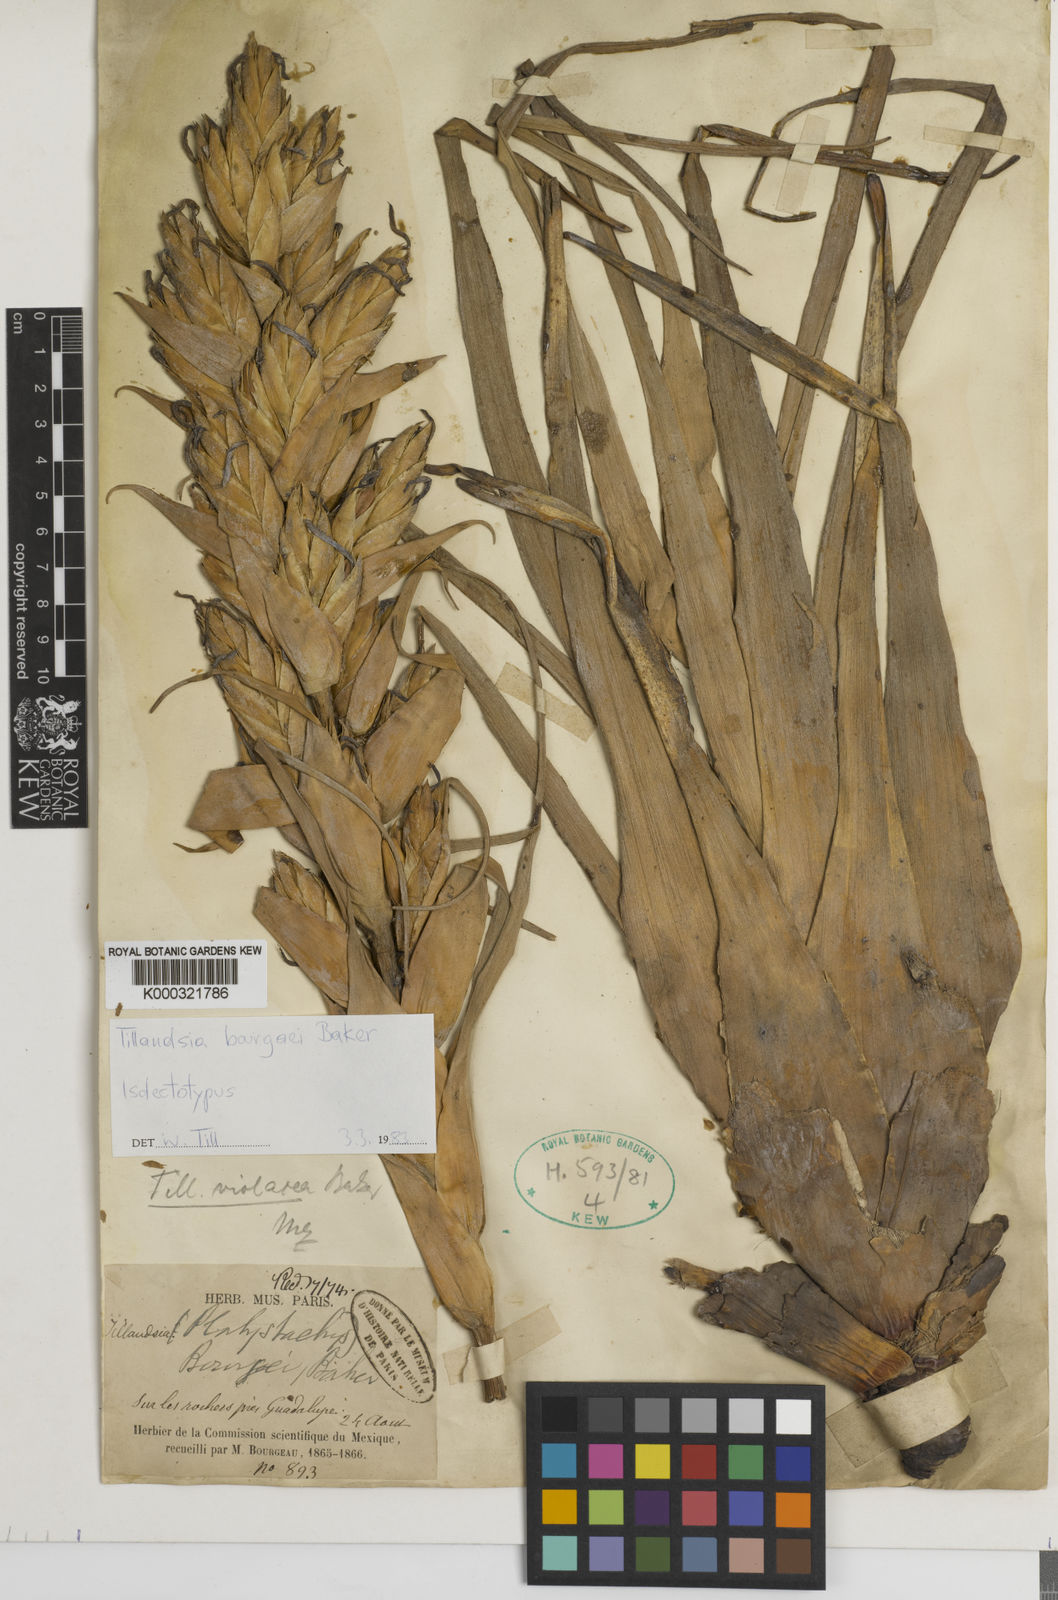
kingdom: Plantae
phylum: Tracheophyta
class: Liliopsida
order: Poales
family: Bromeliaceae
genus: Tillandsia
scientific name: Tillandsia bourgaei
